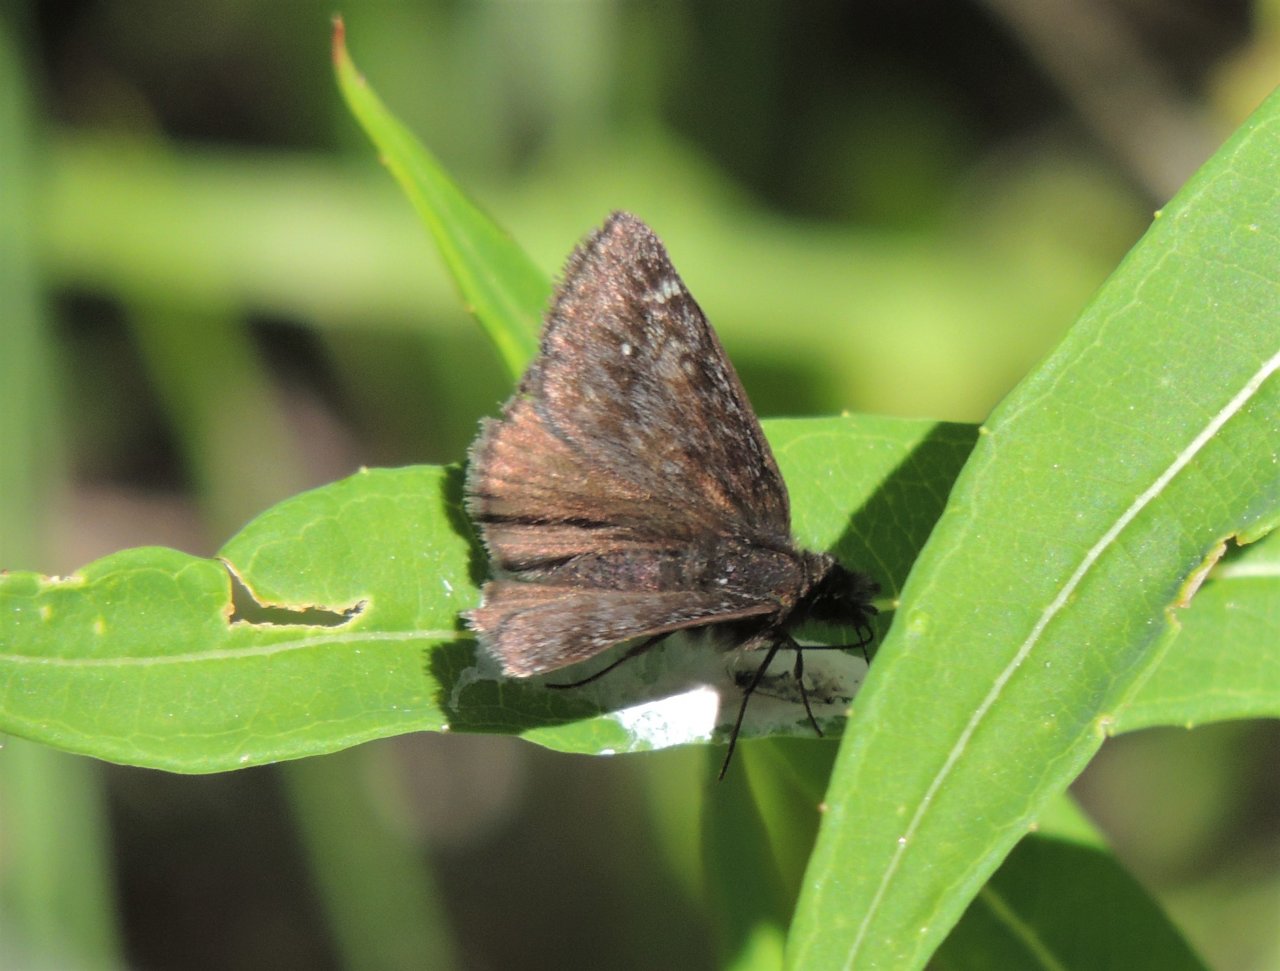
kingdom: Animalia
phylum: Arthropoda
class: Insecta
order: Lepidoptera
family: Hesperiidae
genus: Gesta
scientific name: Gesta
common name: Persius Duskywing
